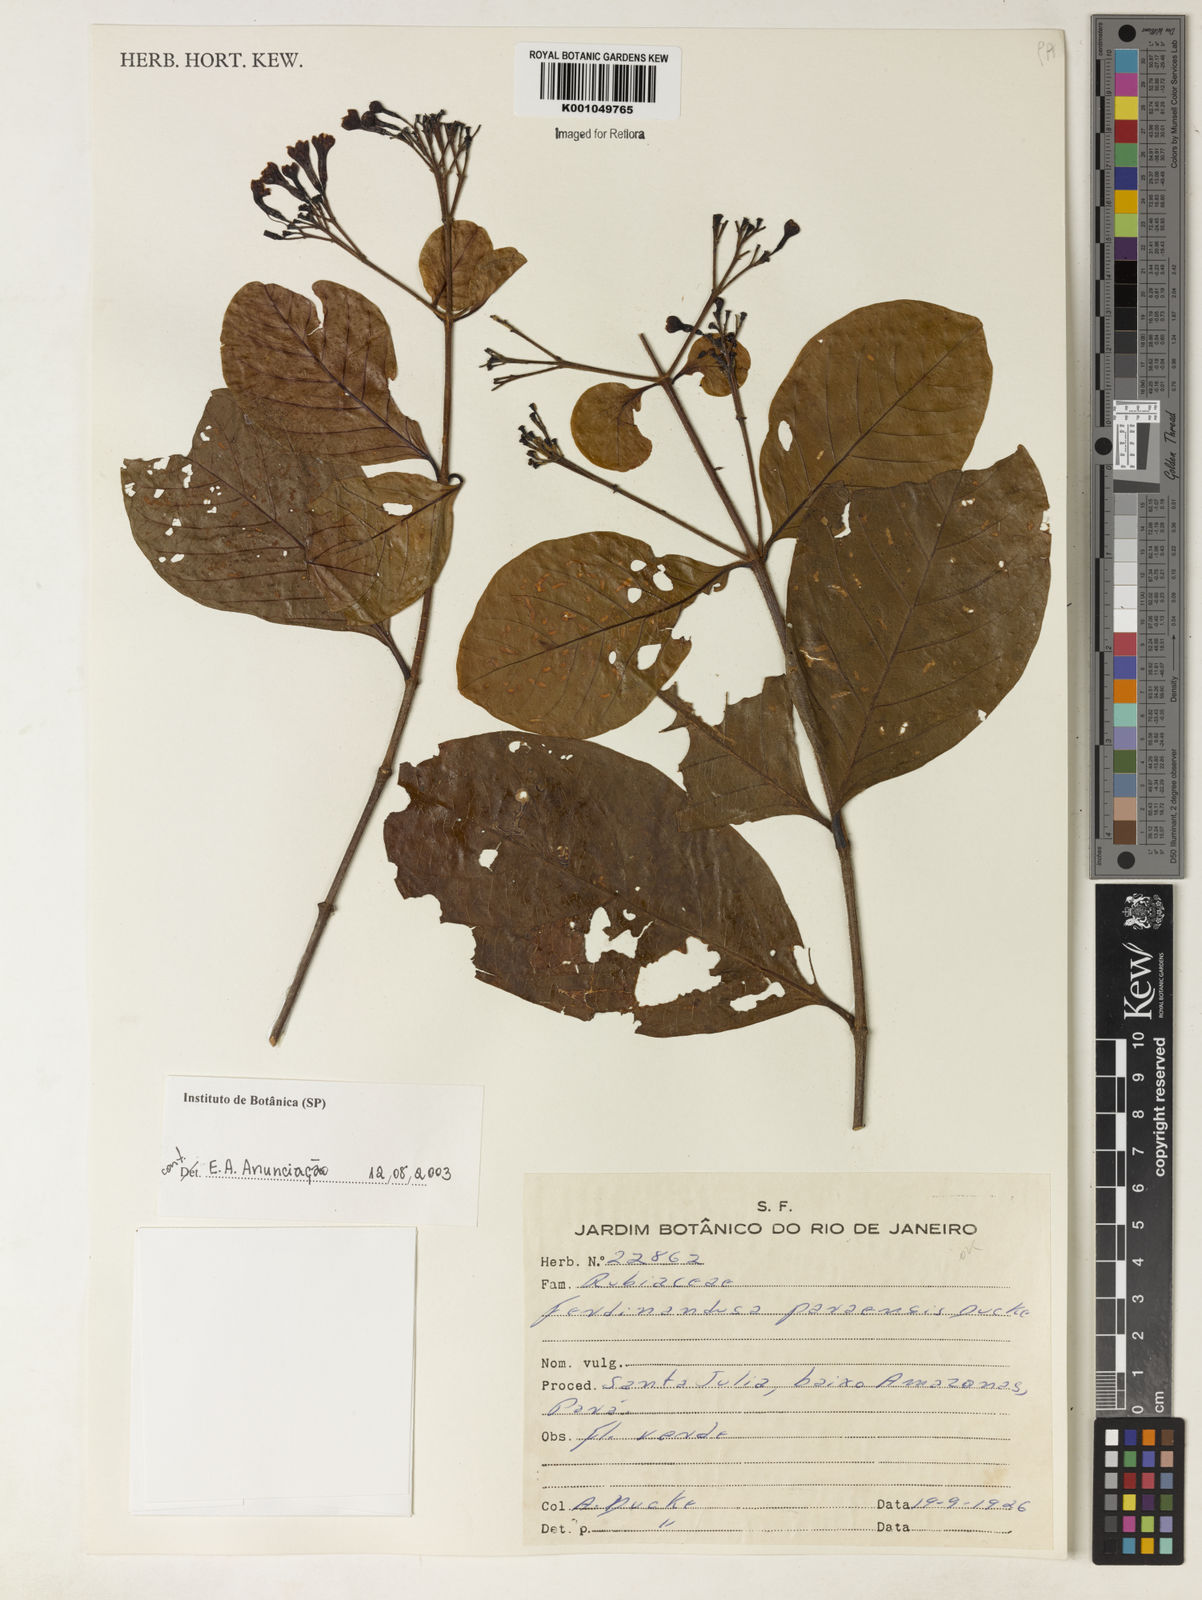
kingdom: Plantae
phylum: Tracheophyta
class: Magnoliopsida
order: Gentianales
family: Rubiaceae
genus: Ferdinandusa
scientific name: Ferdinandusa paraensis
